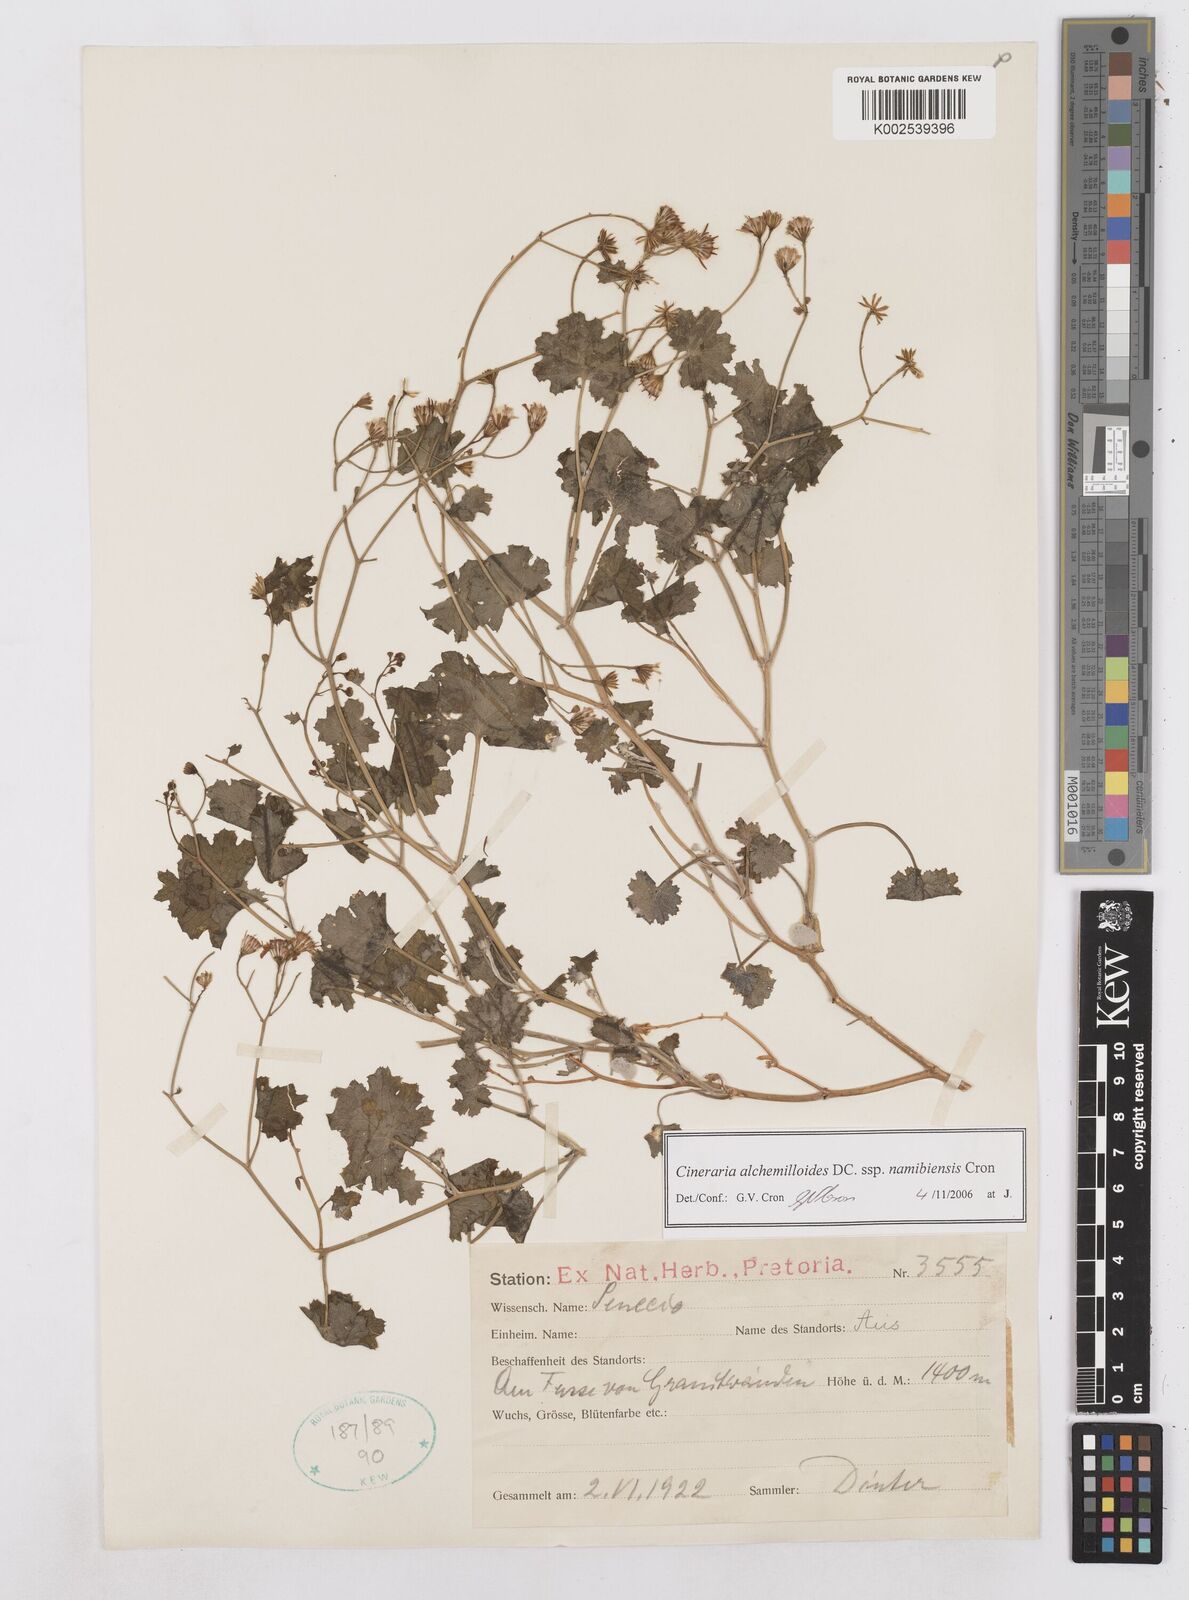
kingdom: Plantae
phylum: Tracheophyta
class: Magnoliopsida
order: Asterales
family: Asteraceae
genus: Cineraria
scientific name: Cineraria alchemilloides
